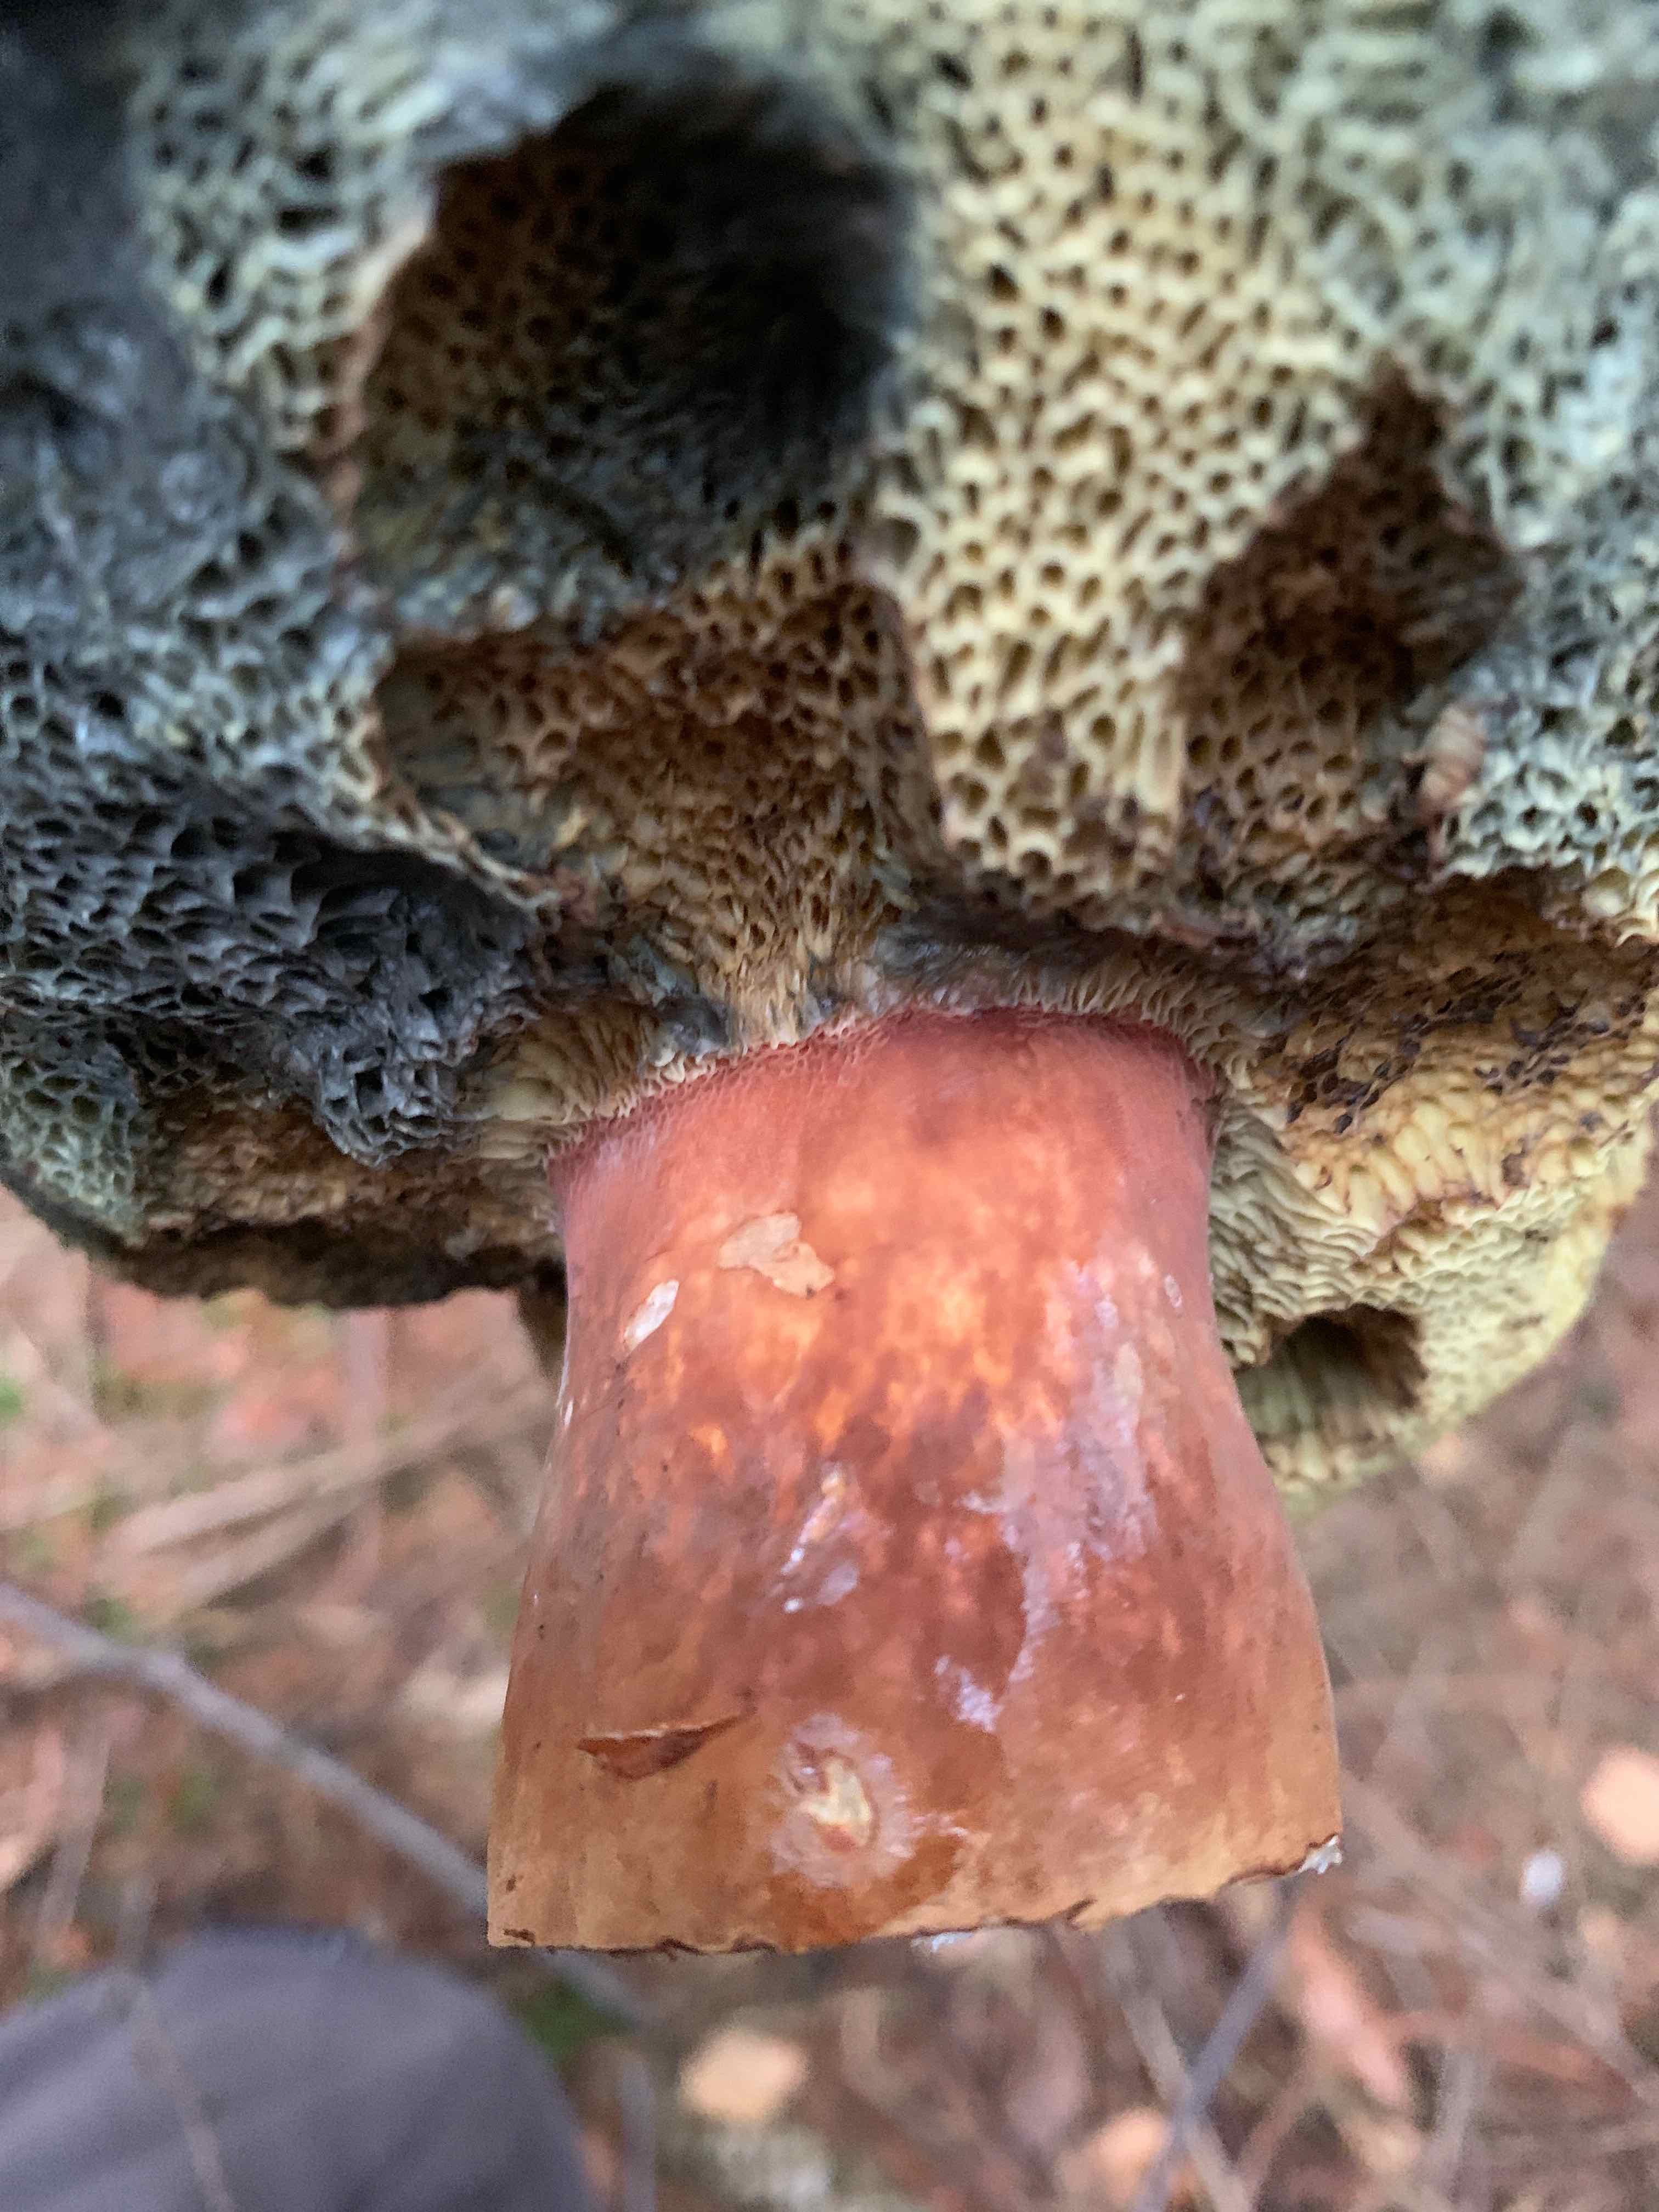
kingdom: Fungi
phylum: Basidiomycota
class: Agaricomycetes
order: Boletales
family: Boletaceae
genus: Imleria
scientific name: Imleria badia
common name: brunstokket rørhat
